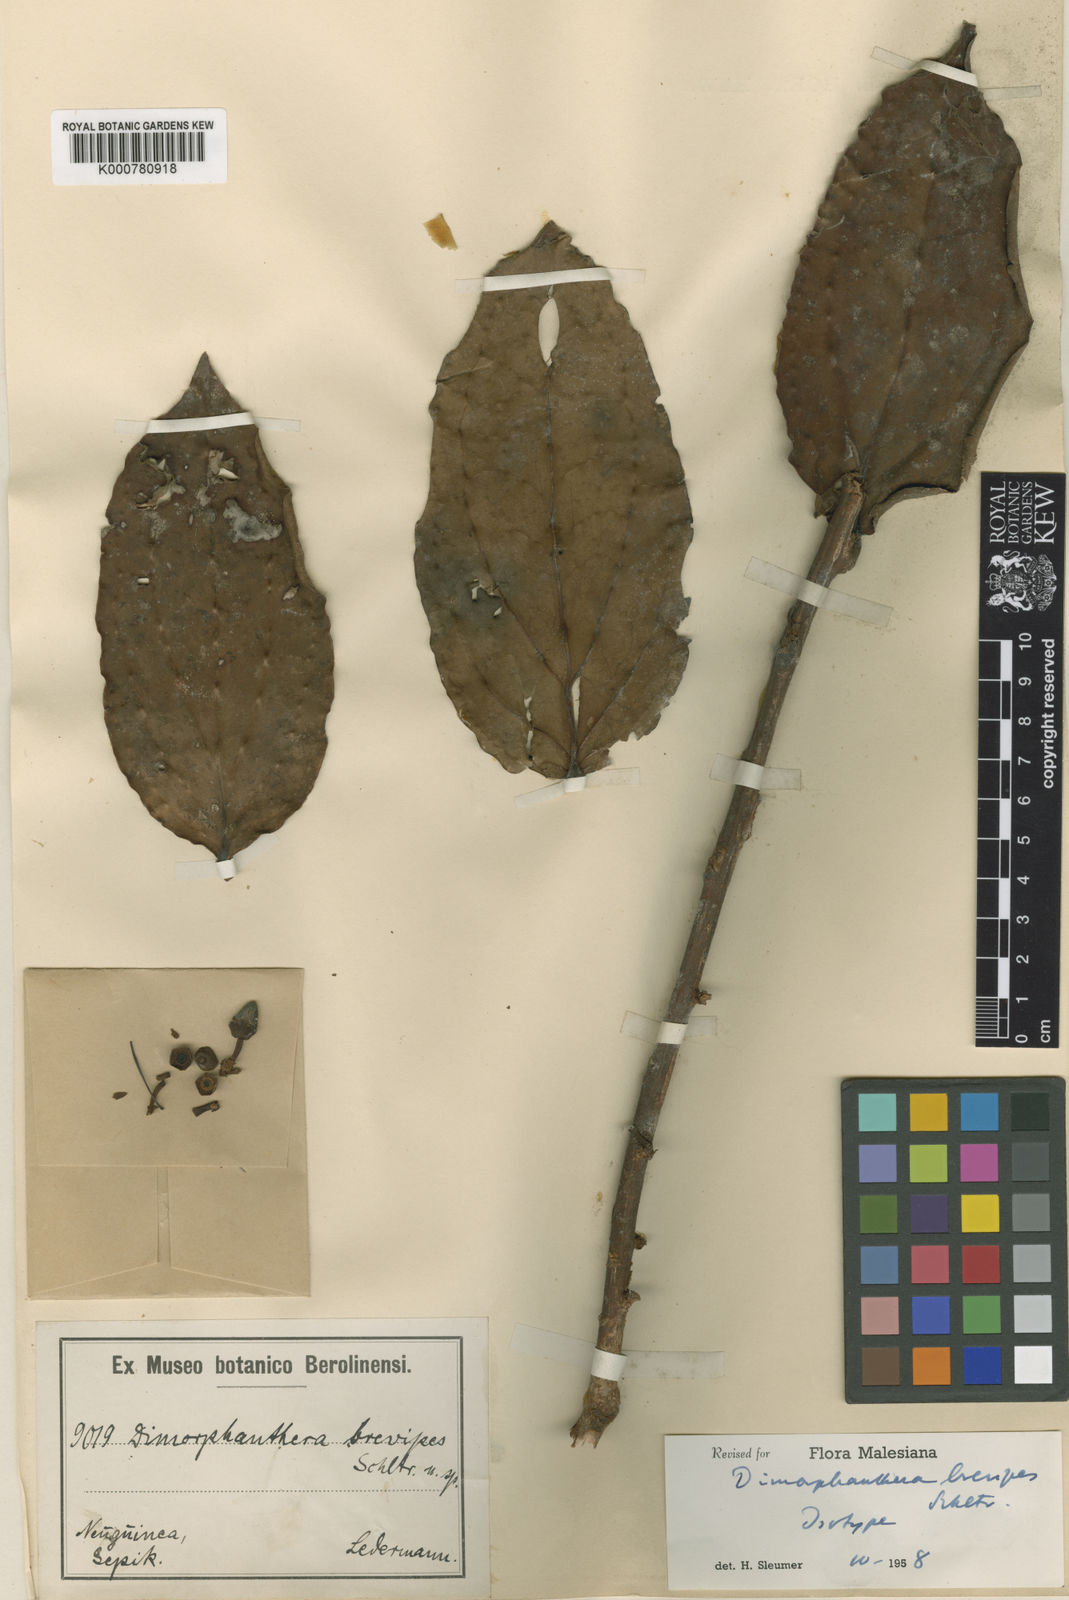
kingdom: Plantae
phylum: Tracheophyta
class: Magnoliopsida
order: Ericales
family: Ericaceae
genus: Dimorphanthera
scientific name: Dimorphanthera forbesii
